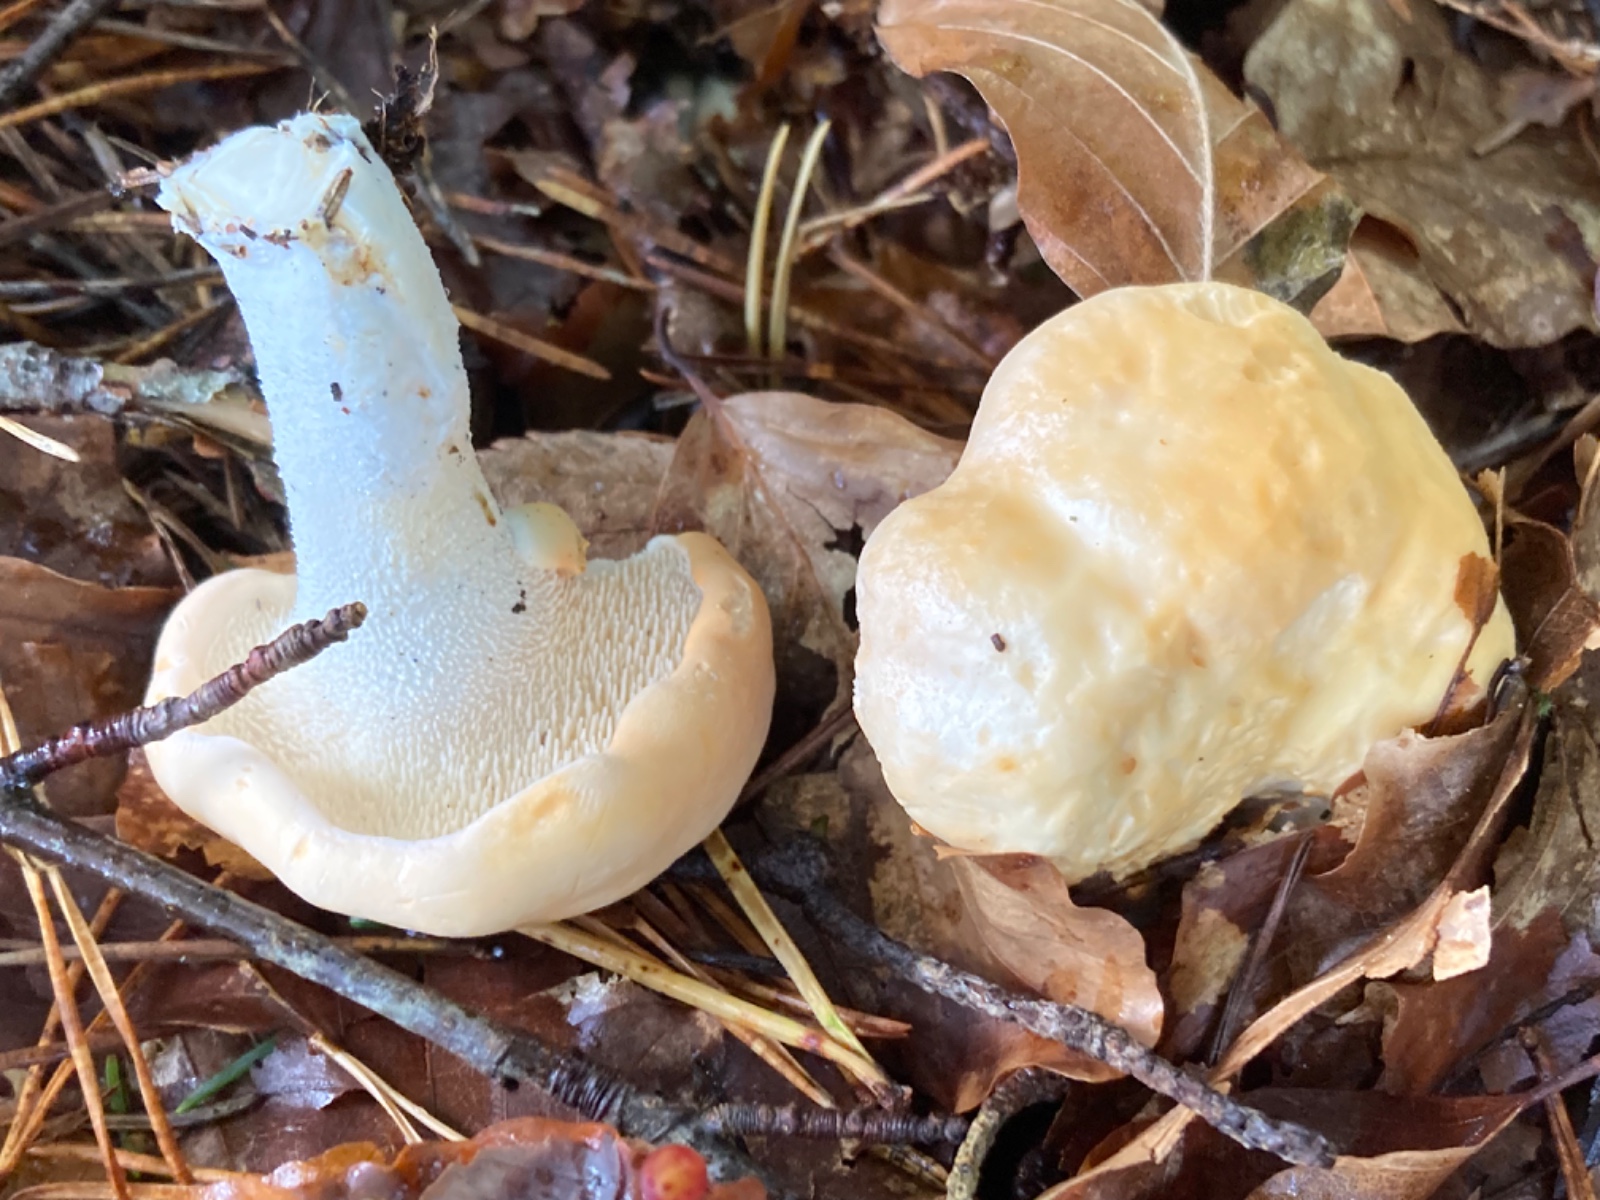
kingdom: Fungi
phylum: Basidiomycota
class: Agaricomycetes
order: Cantharellales
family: Hydnaceae
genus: Hydnum
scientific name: Hydnum
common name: pigsvamp
